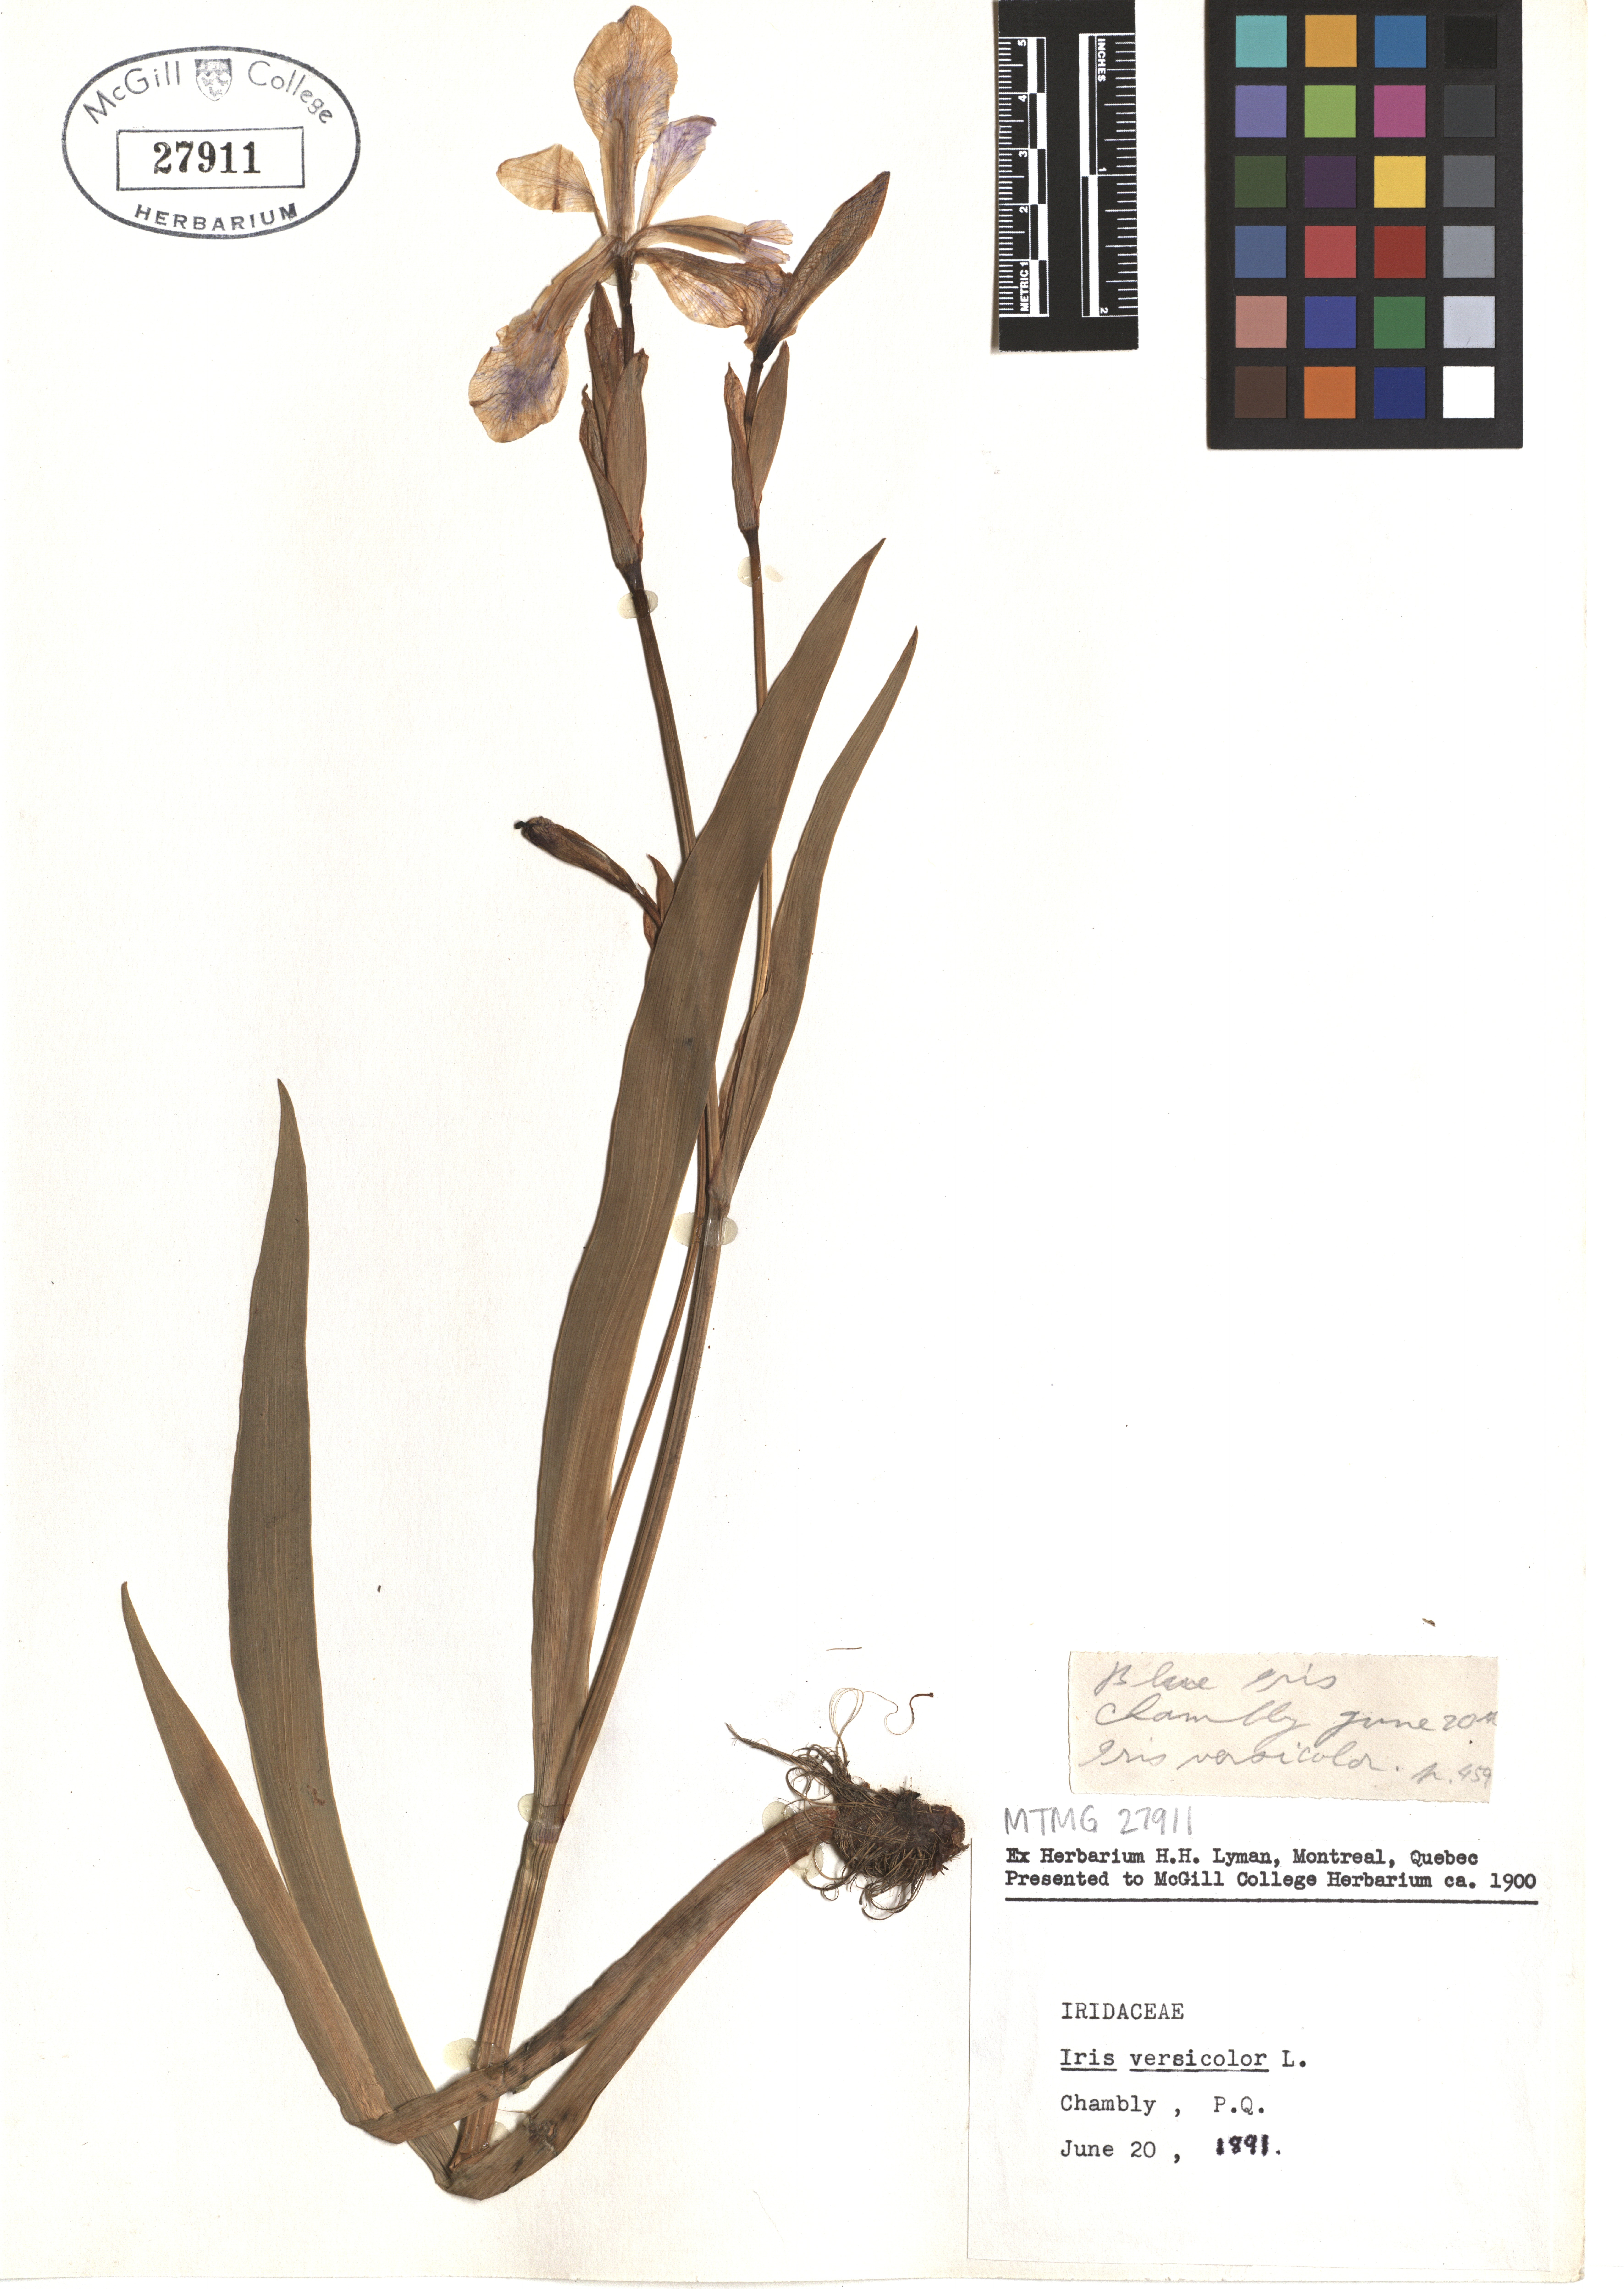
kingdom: Plantae
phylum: Tracheophyta
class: Liliopsida
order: Asparagales
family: Iridaceae
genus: Iris
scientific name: Iris versicolor
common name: Purple iris
